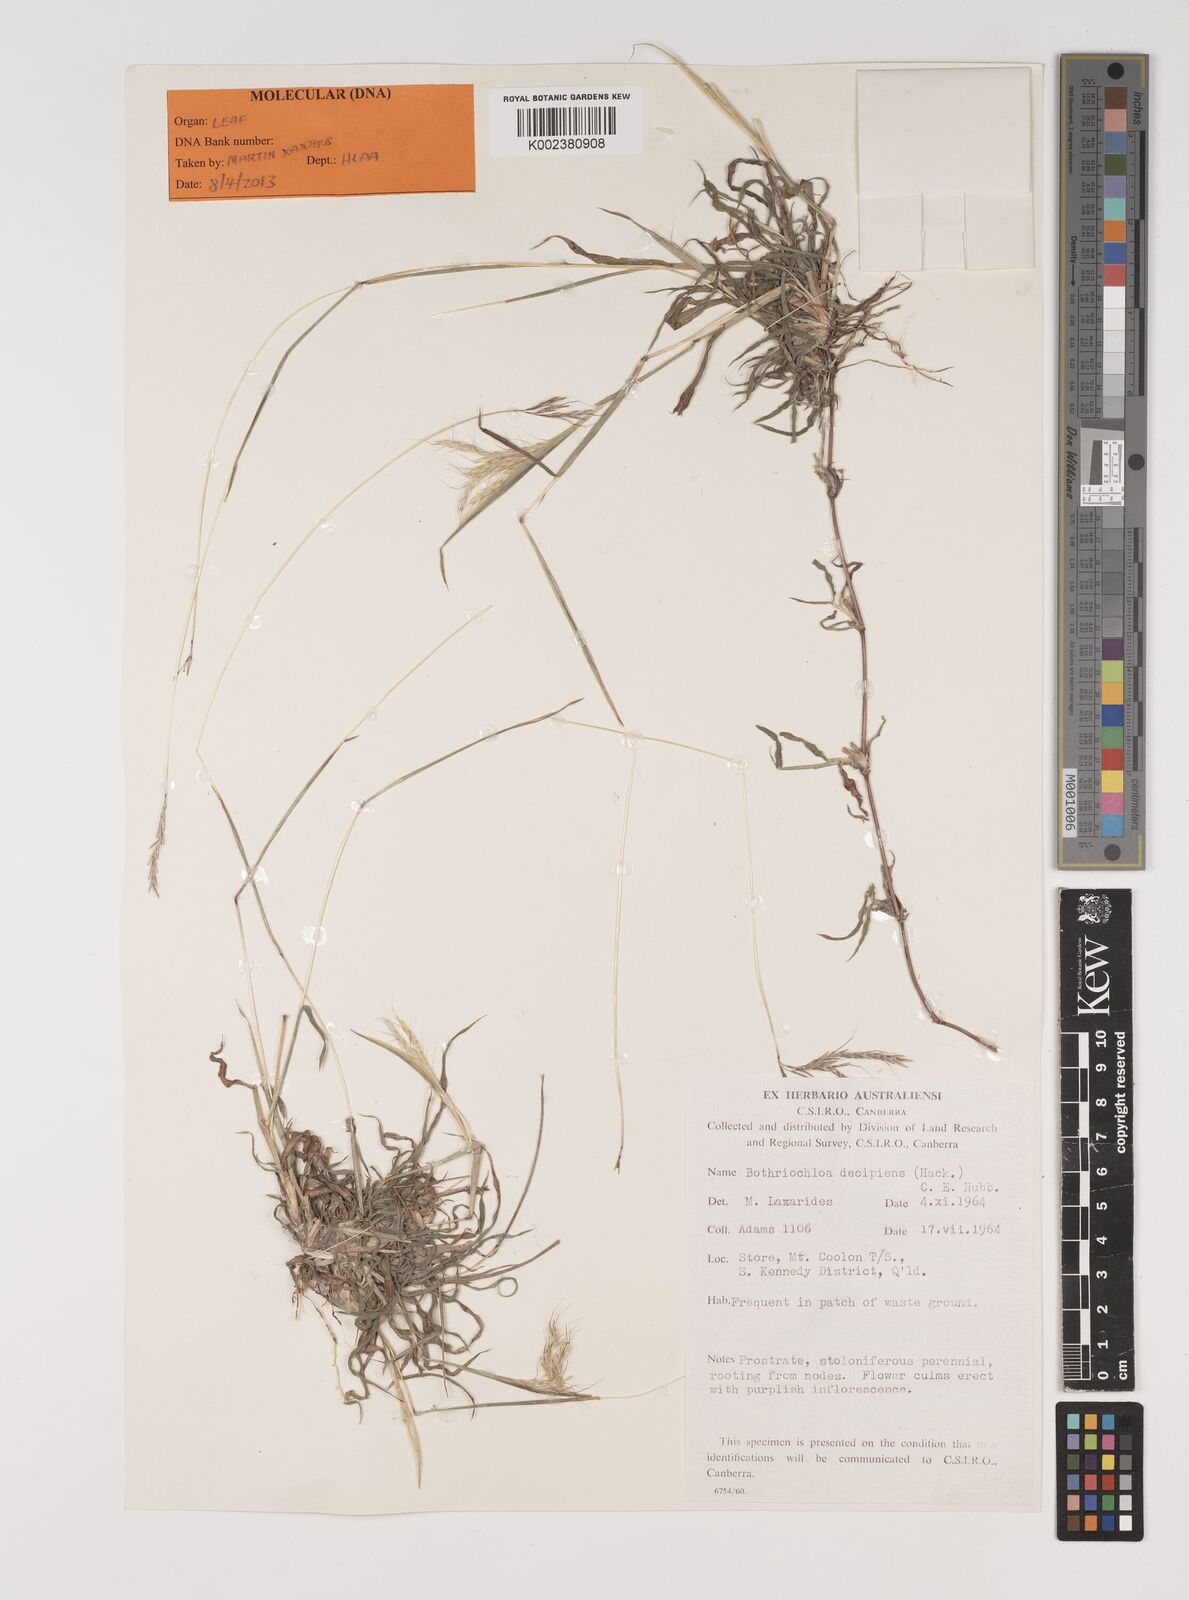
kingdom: Plantae
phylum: Tracheophyta
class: Liliopsida
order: Poales
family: Poaceae
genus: Bothriochloa
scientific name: Bothriochloa decipiens
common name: Pitted-bluegrass
